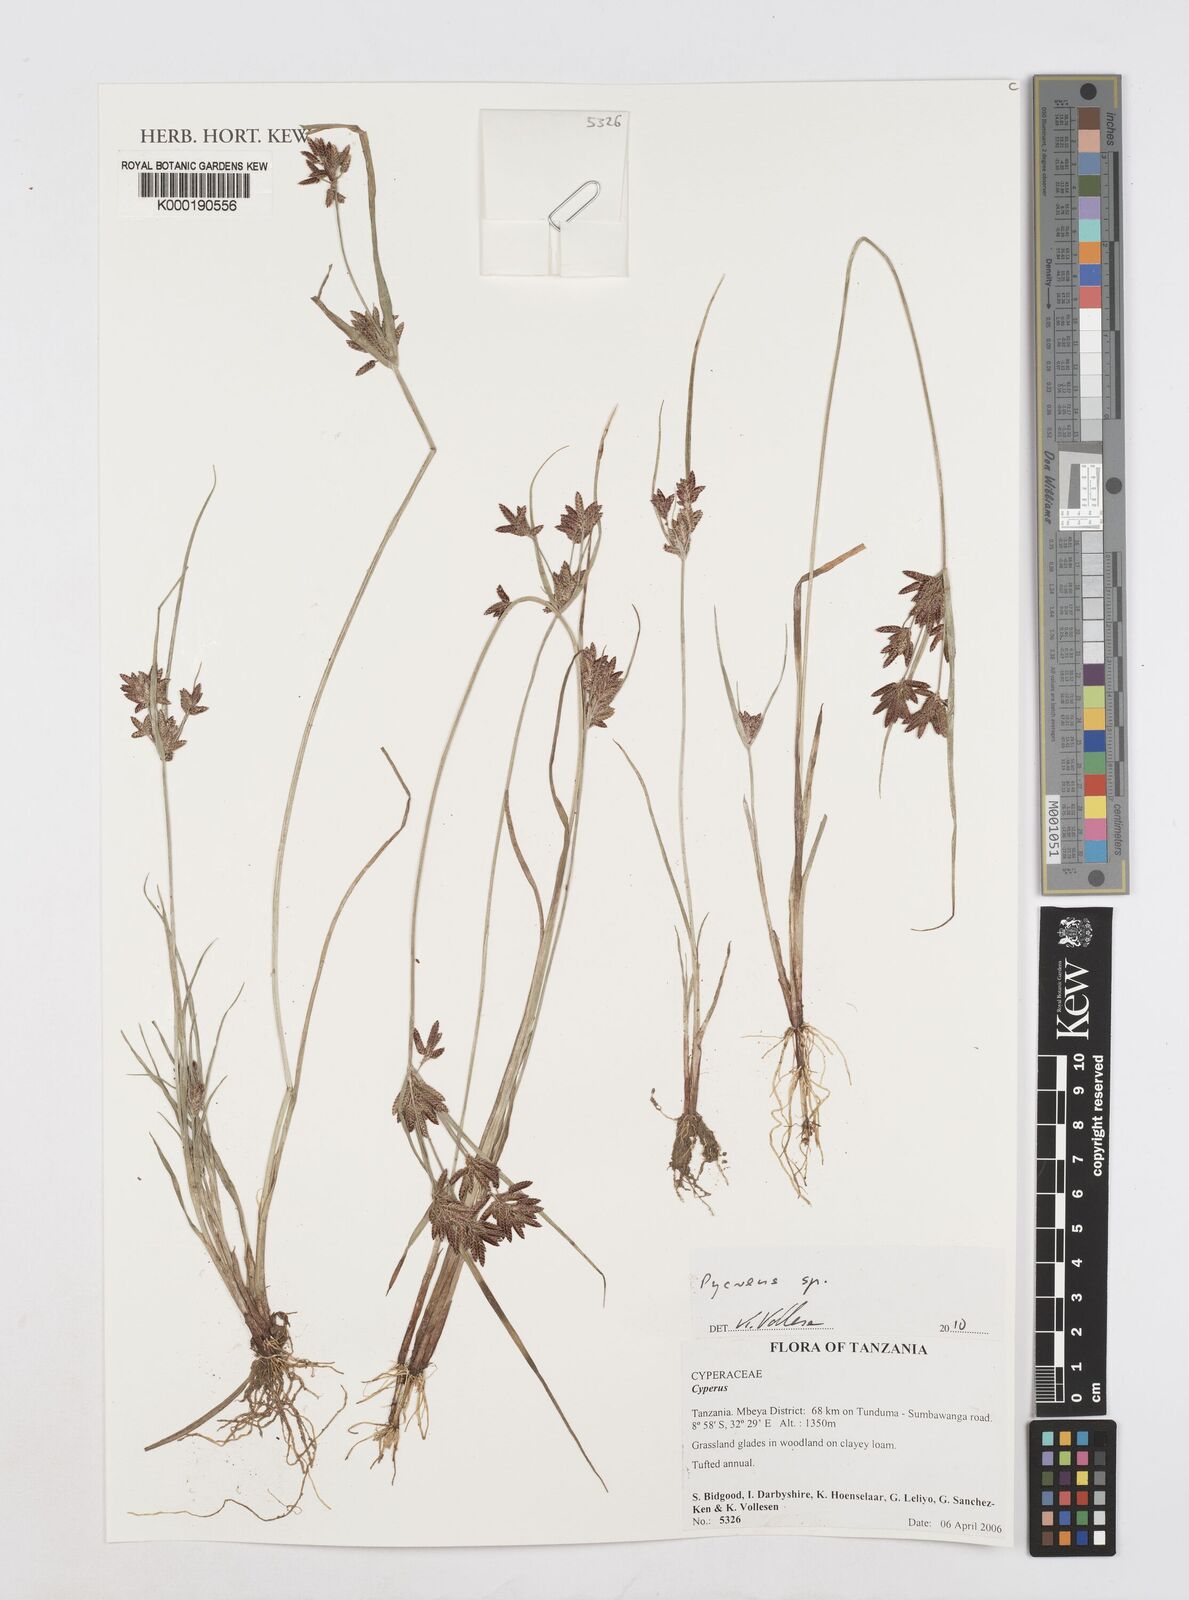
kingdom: Plantae
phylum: Tracheophyta
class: Liliopsida
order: Poales
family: Cyperaceae
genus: Cyperus
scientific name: Cyperus
